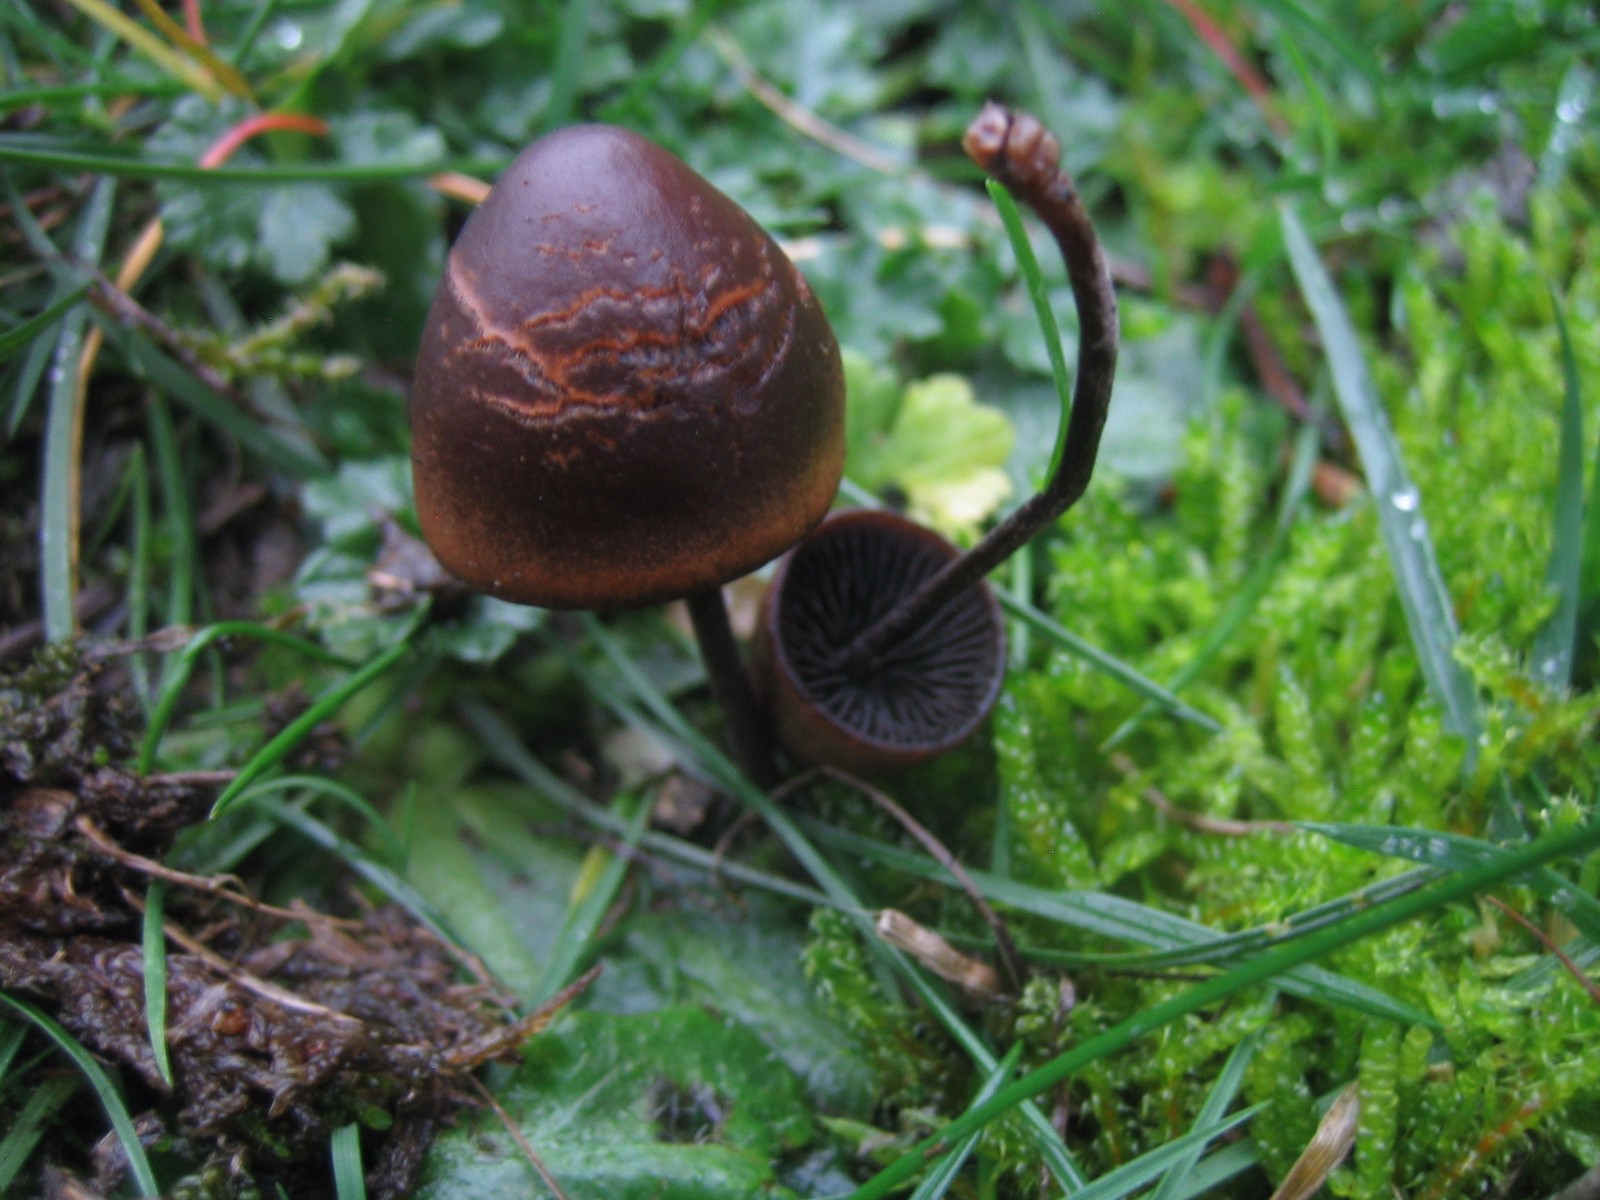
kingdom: Fungi
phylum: Basidiomycota
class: Agaricomycetes
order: Agaricales
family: Bolbitiaceae
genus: Panaeolus
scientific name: Panaeolus acuminatus
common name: høj glanshat
